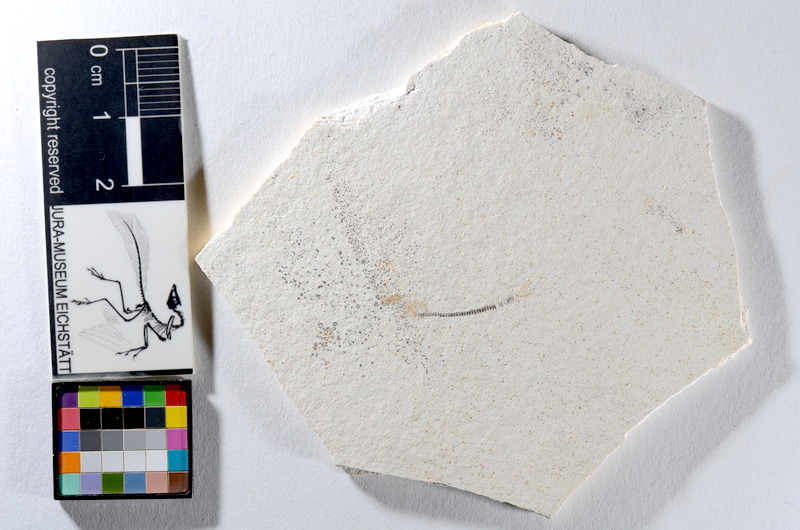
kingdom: Animalia
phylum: Chordata
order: Salmoniformes
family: Orthogonikleithridae
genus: Orthogonikleithrus
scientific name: Orthogonikleithrus hoelli
